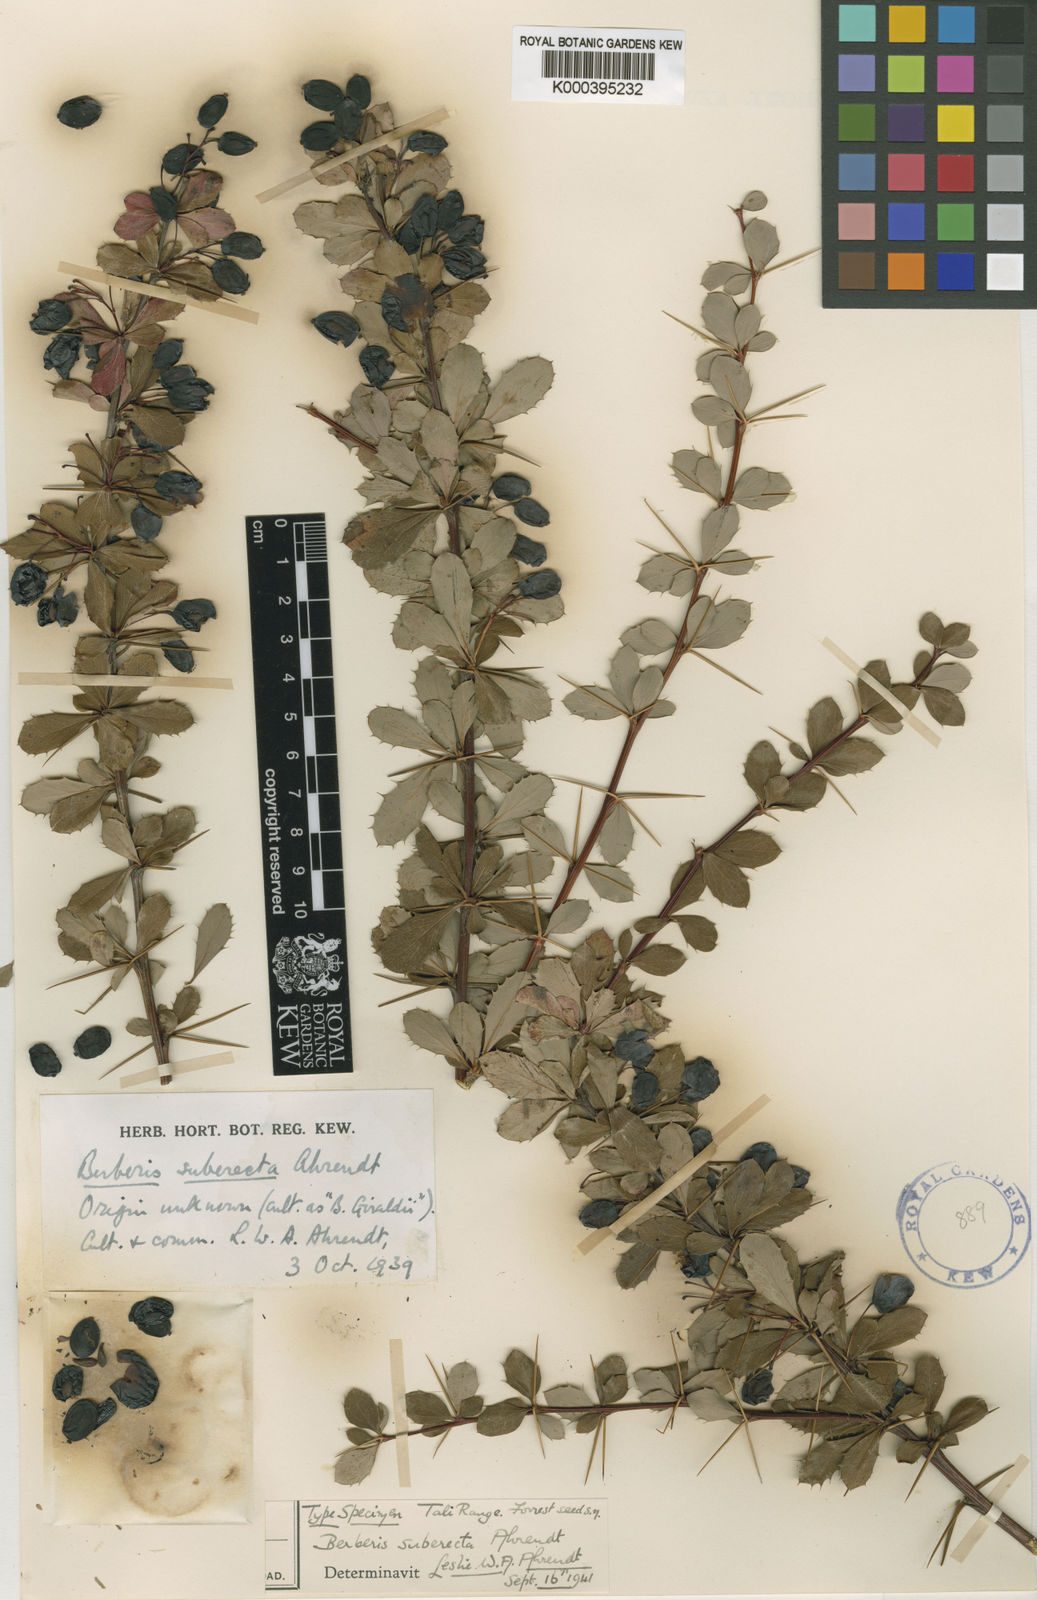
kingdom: Plantae
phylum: Tracheophyta
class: Magnoliopsida
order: Ranunculales
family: Berberidaceae
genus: Berberis
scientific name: Berberis suberecta
